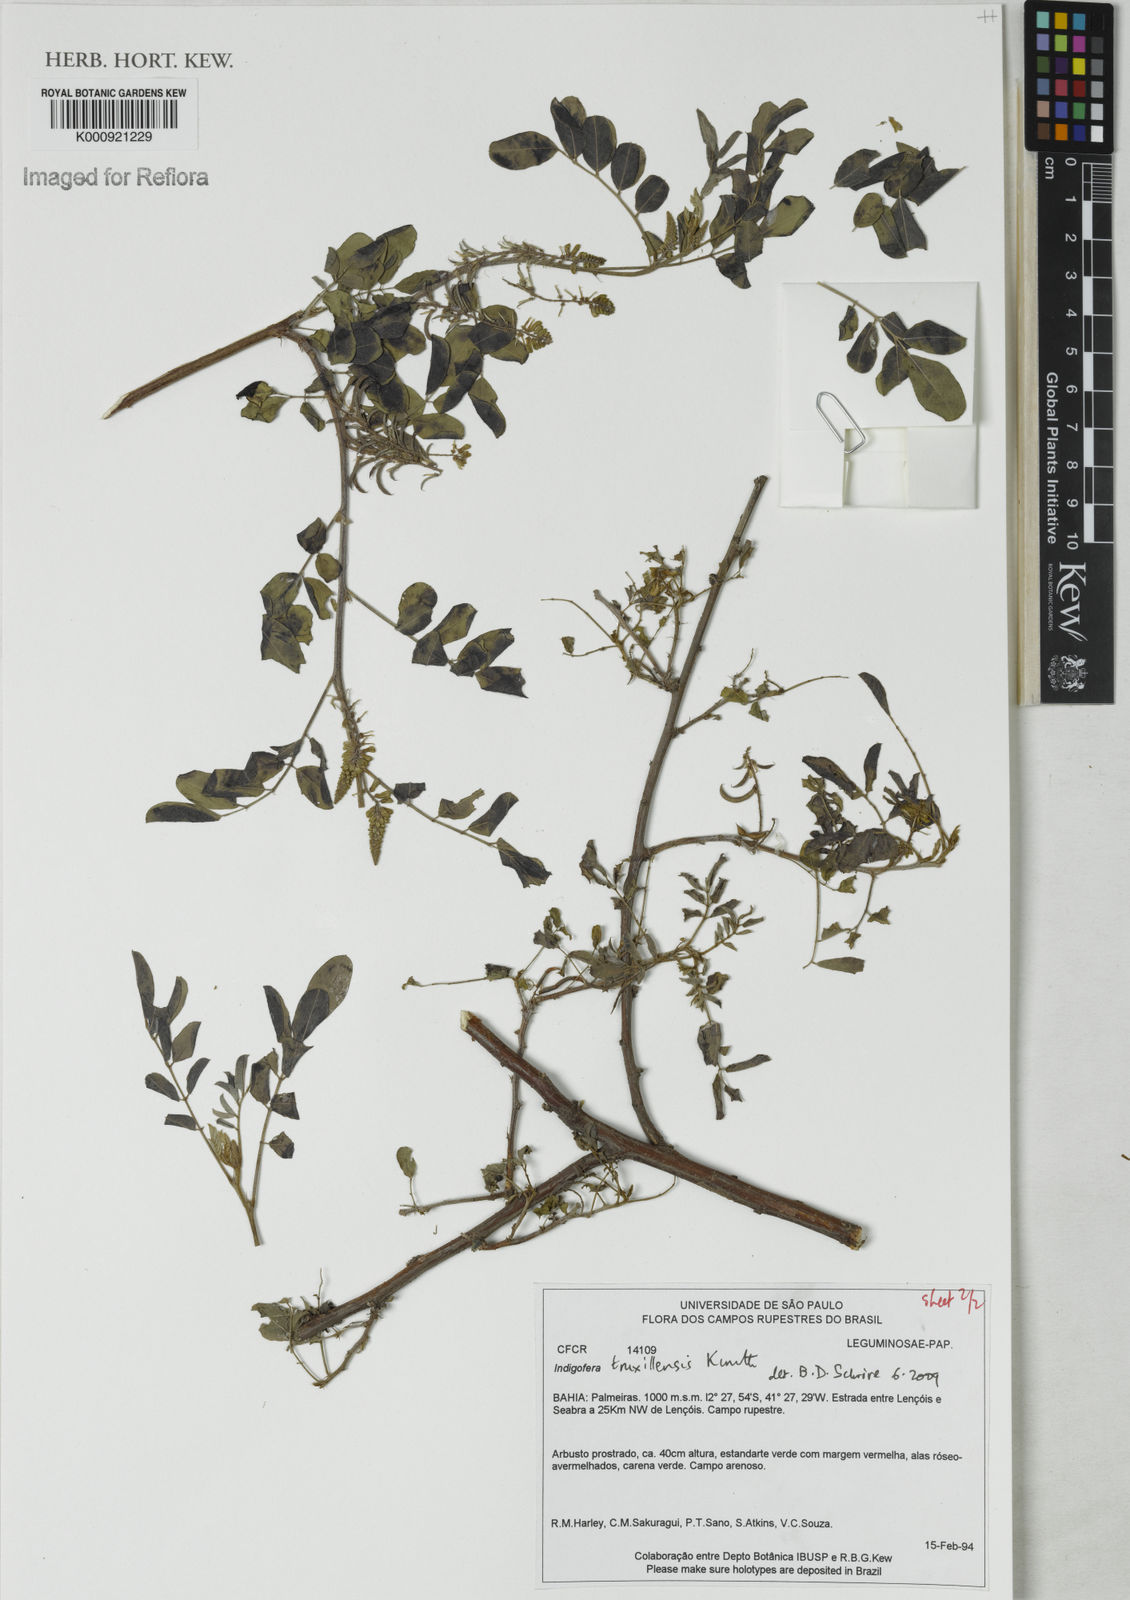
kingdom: Plantae
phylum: Tracheophyta
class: Magnoliopsida
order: Fabales
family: Fabaceae
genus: Indigofera
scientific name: Indigofera truxillensis
